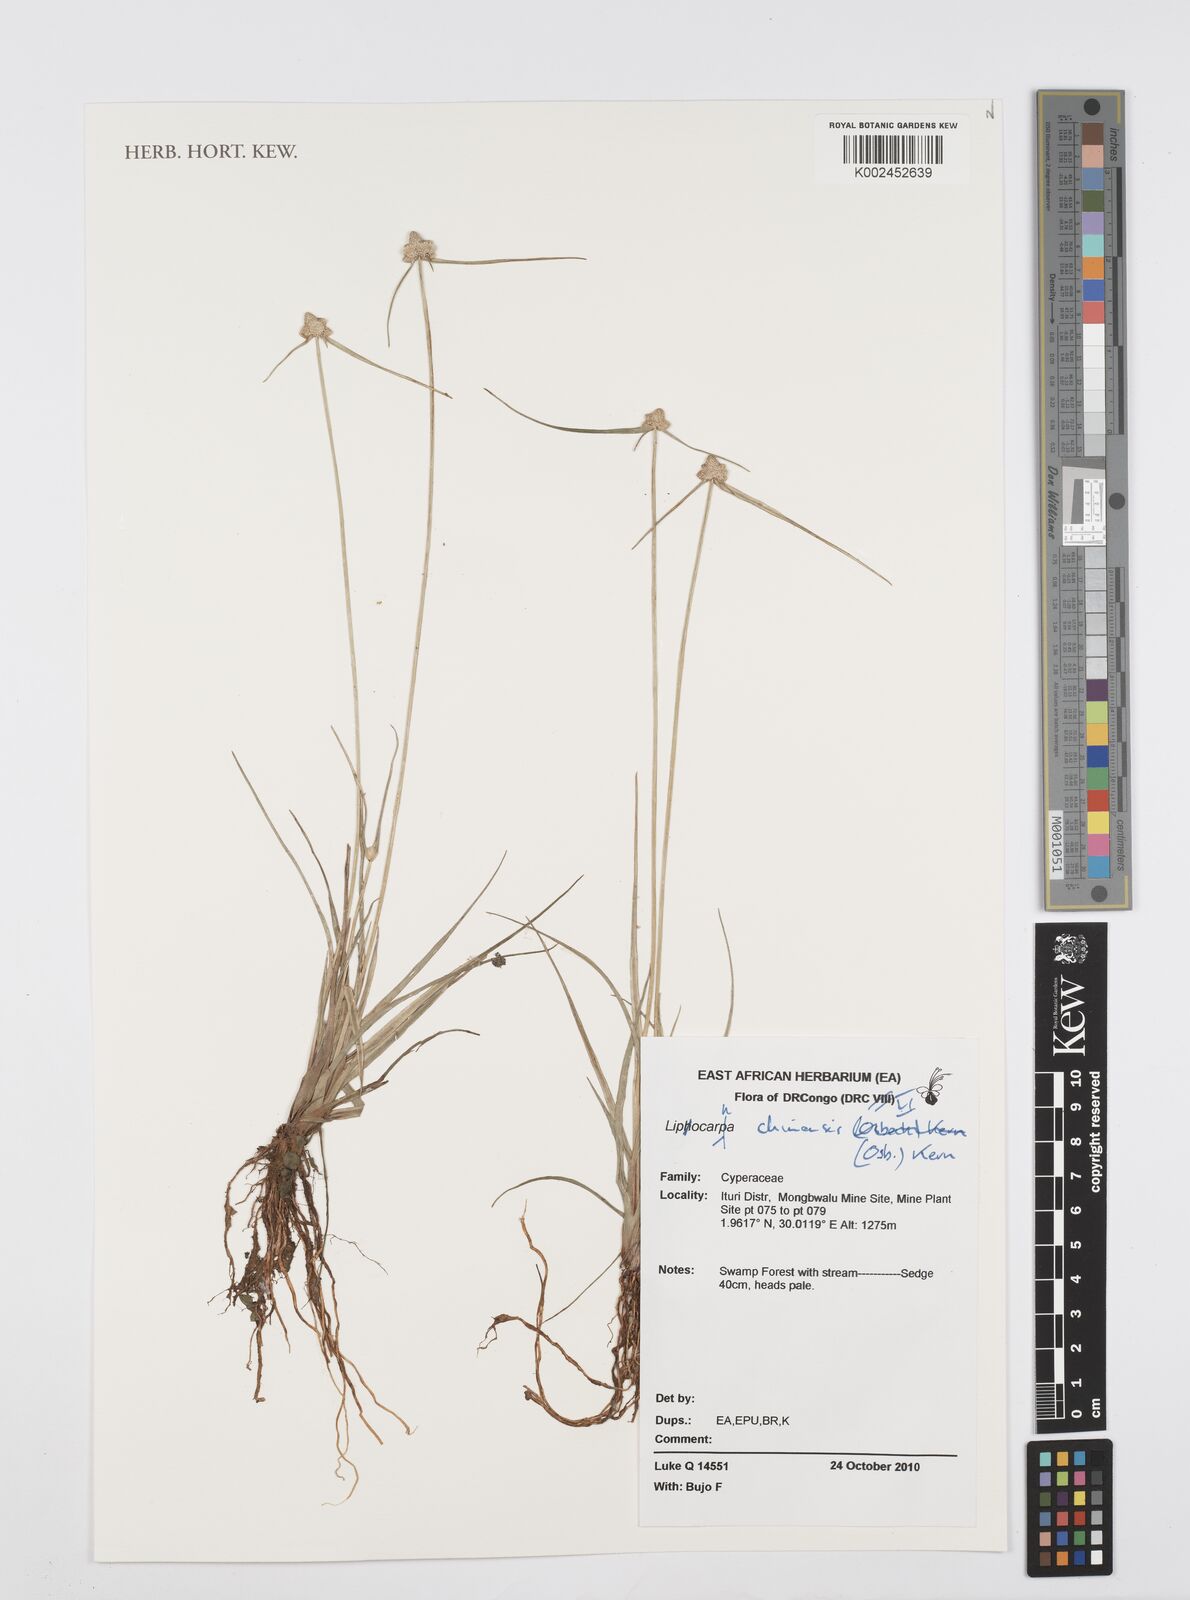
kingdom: Plantae
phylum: Tracheophyta
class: Liliopsida
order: Poales
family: Cyperaceae
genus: Cyperus
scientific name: Cyperus albescens
